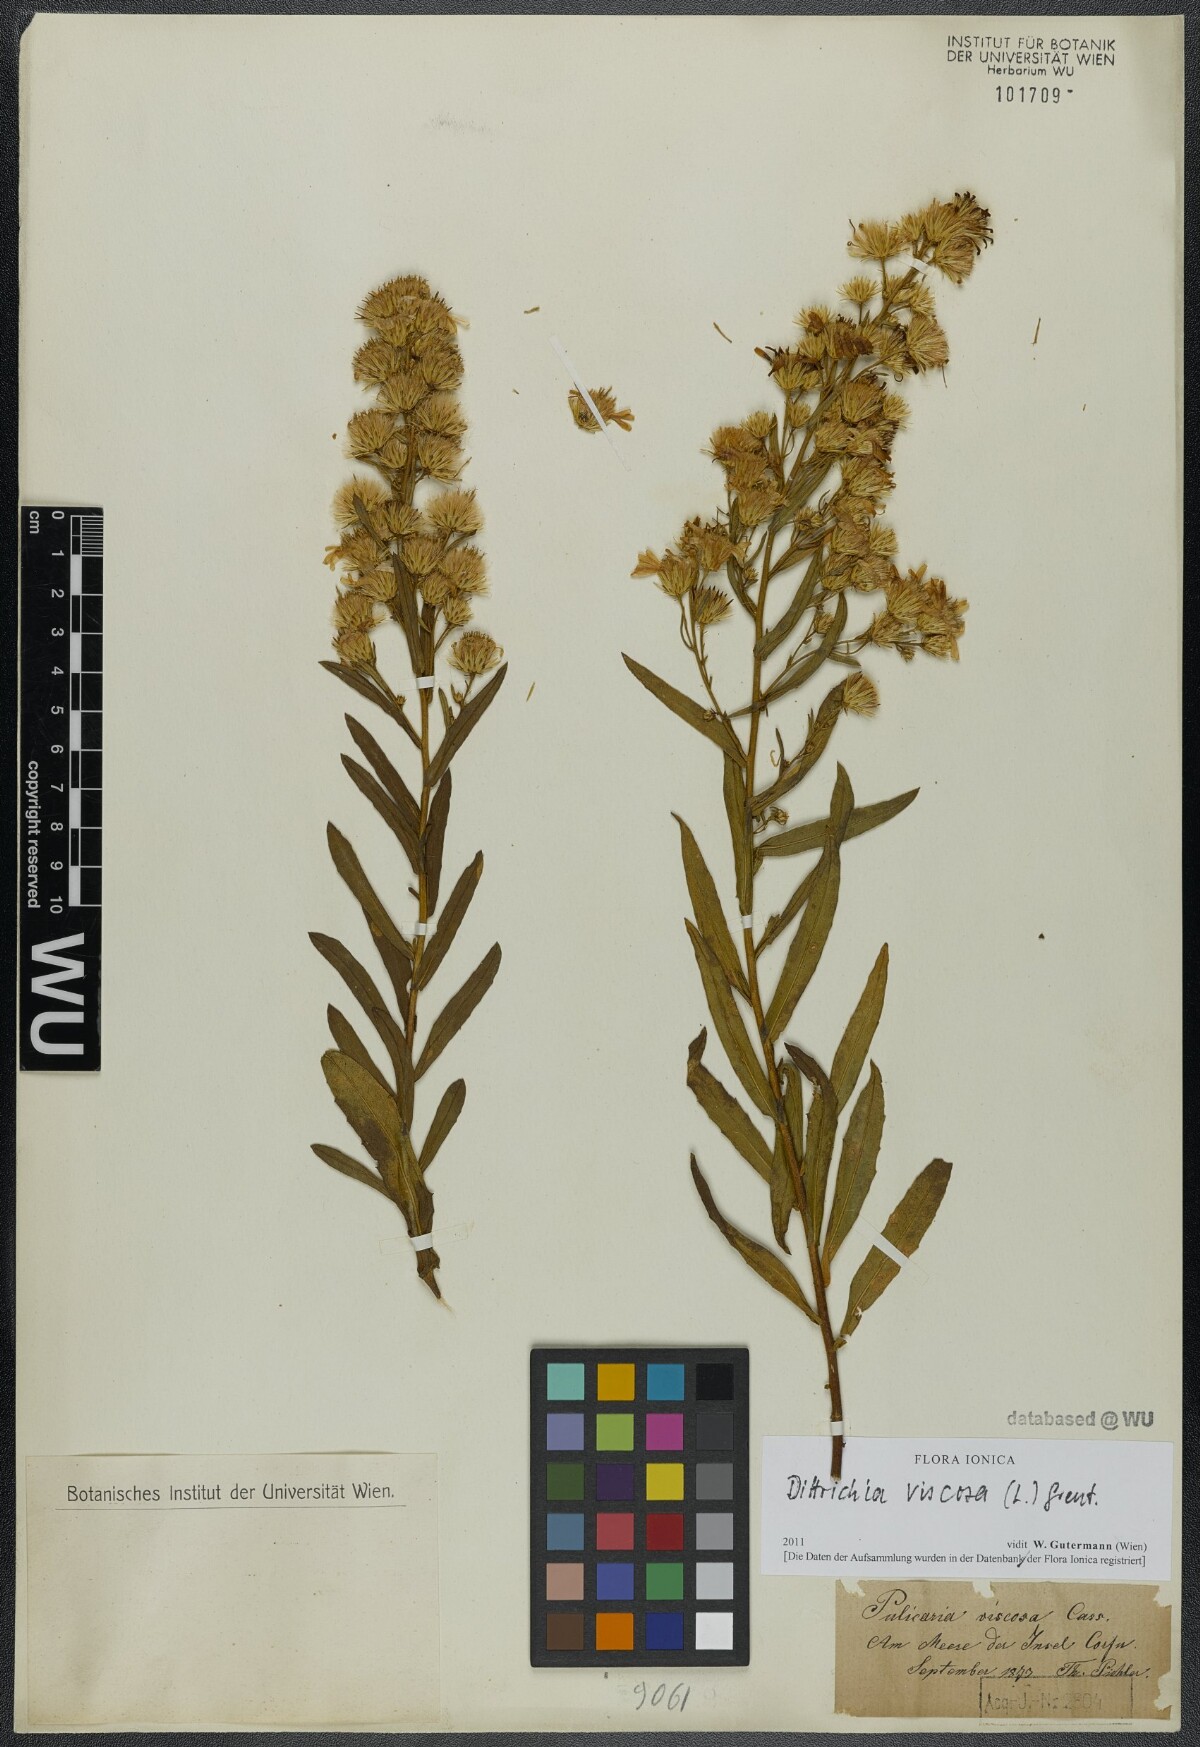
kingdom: Plantae
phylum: Tracheophyta
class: Magnoliopsida
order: Asterales
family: Asteraceae
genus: Dittrichia
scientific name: Dittrichia viscosa
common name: Woody fleabane
